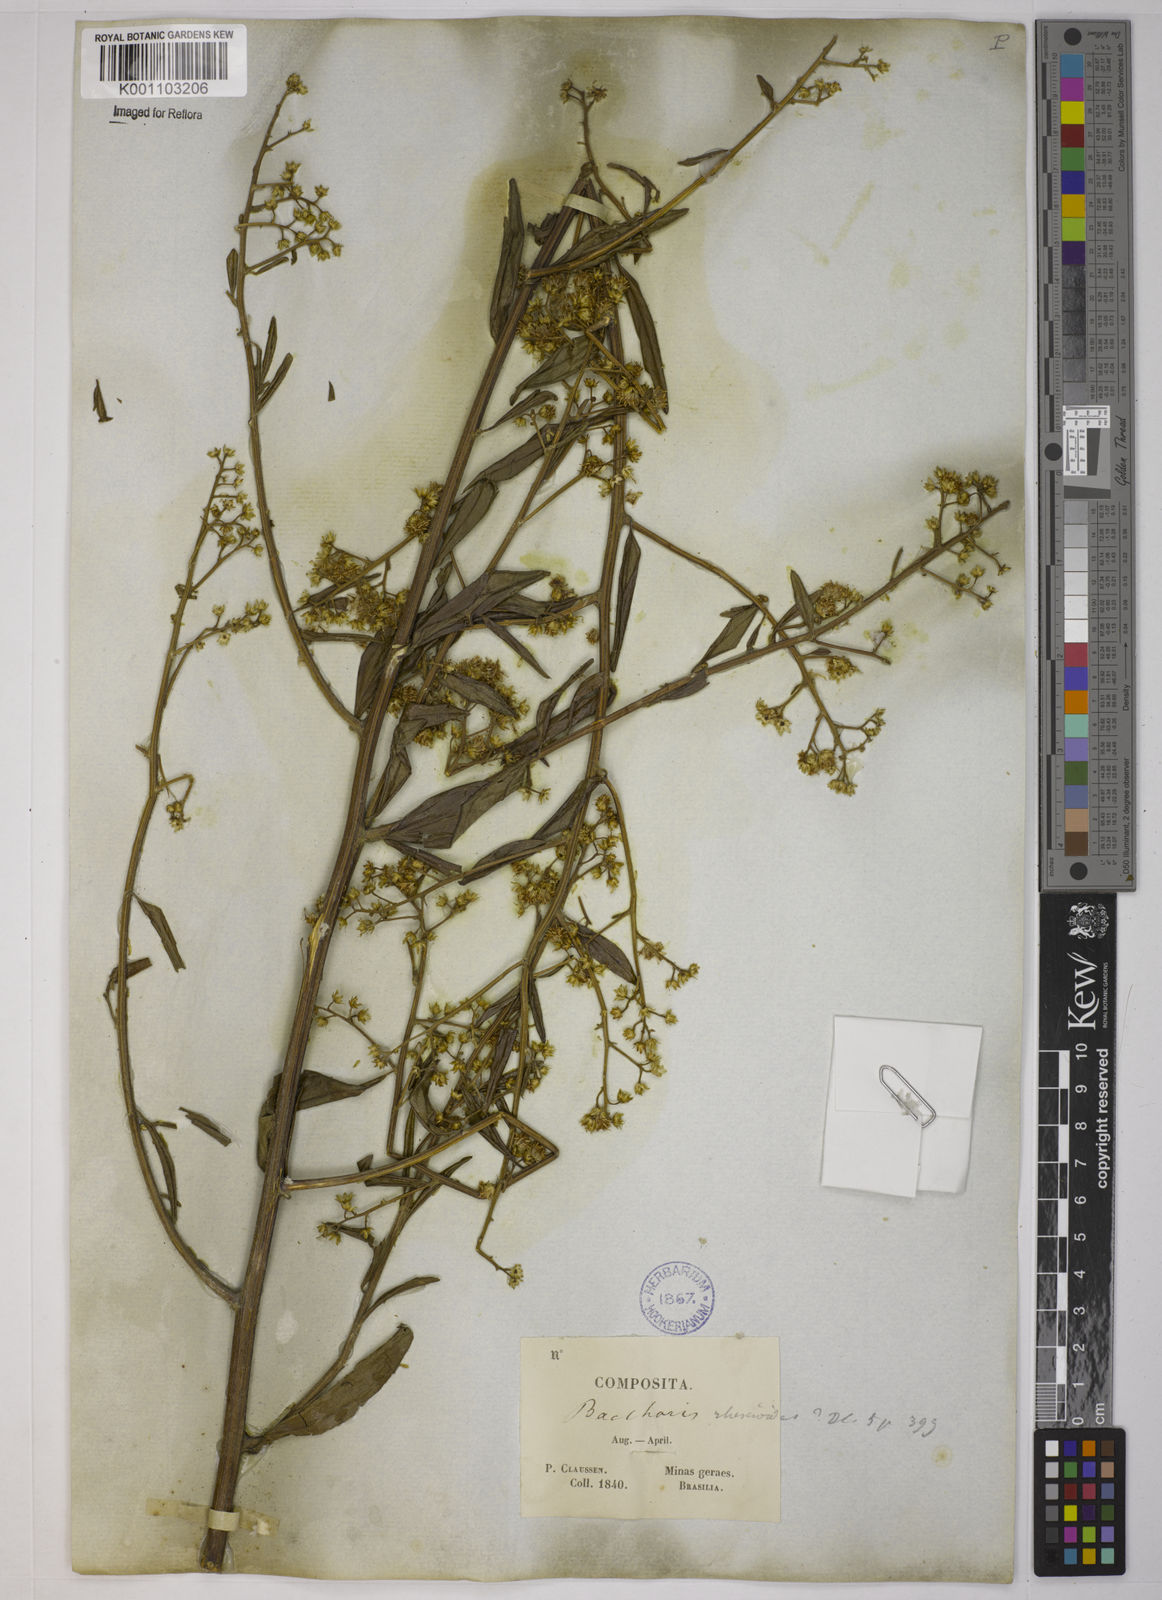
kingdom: Plantae
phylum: Tracheophyta
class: Magnoliopsida
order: Asterales
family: Asteraceae
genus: Baccharis
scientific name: Baccharis trinervis
